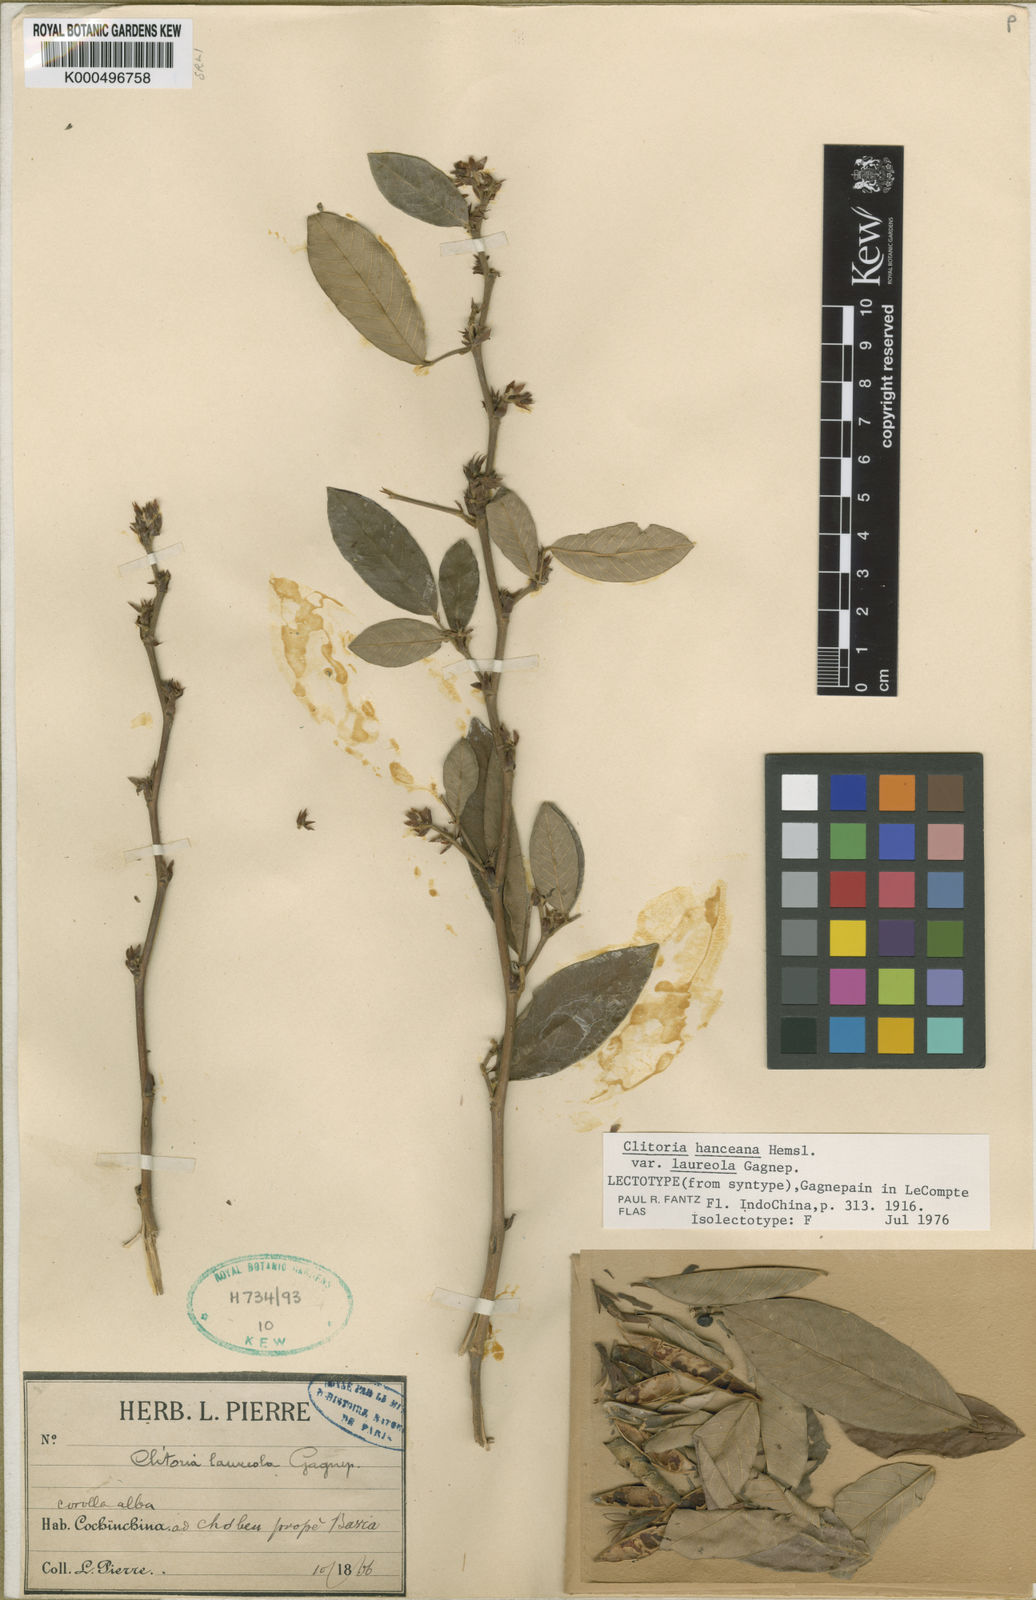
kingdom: Plantae
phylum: Tracheophyta
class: Magnoliopsida
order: Fabales
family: Fabaceae
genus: Clitoria
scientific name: Clitoria hanceana
